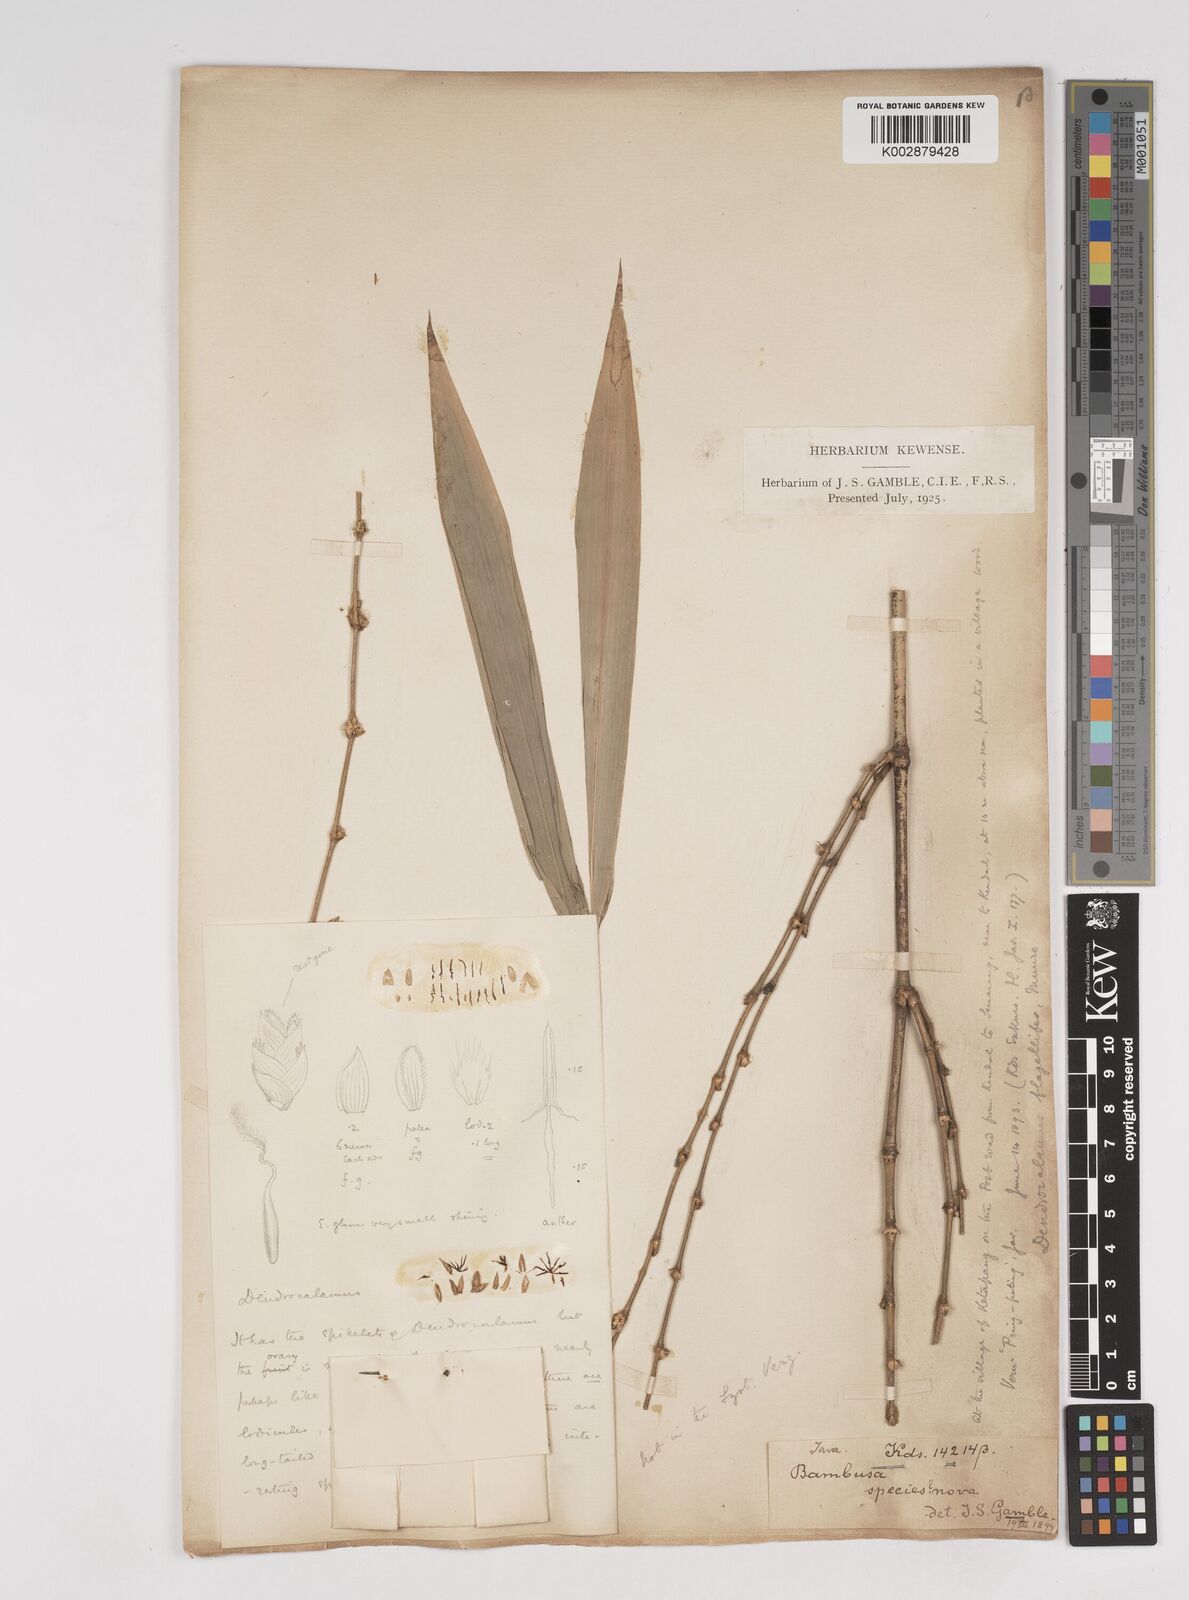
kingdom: Plantae
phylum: Tracheophyta
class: Liliopsida
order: Poales
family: Poaceae
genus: Dendrocalamus
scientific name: Dendrocalamus asper
